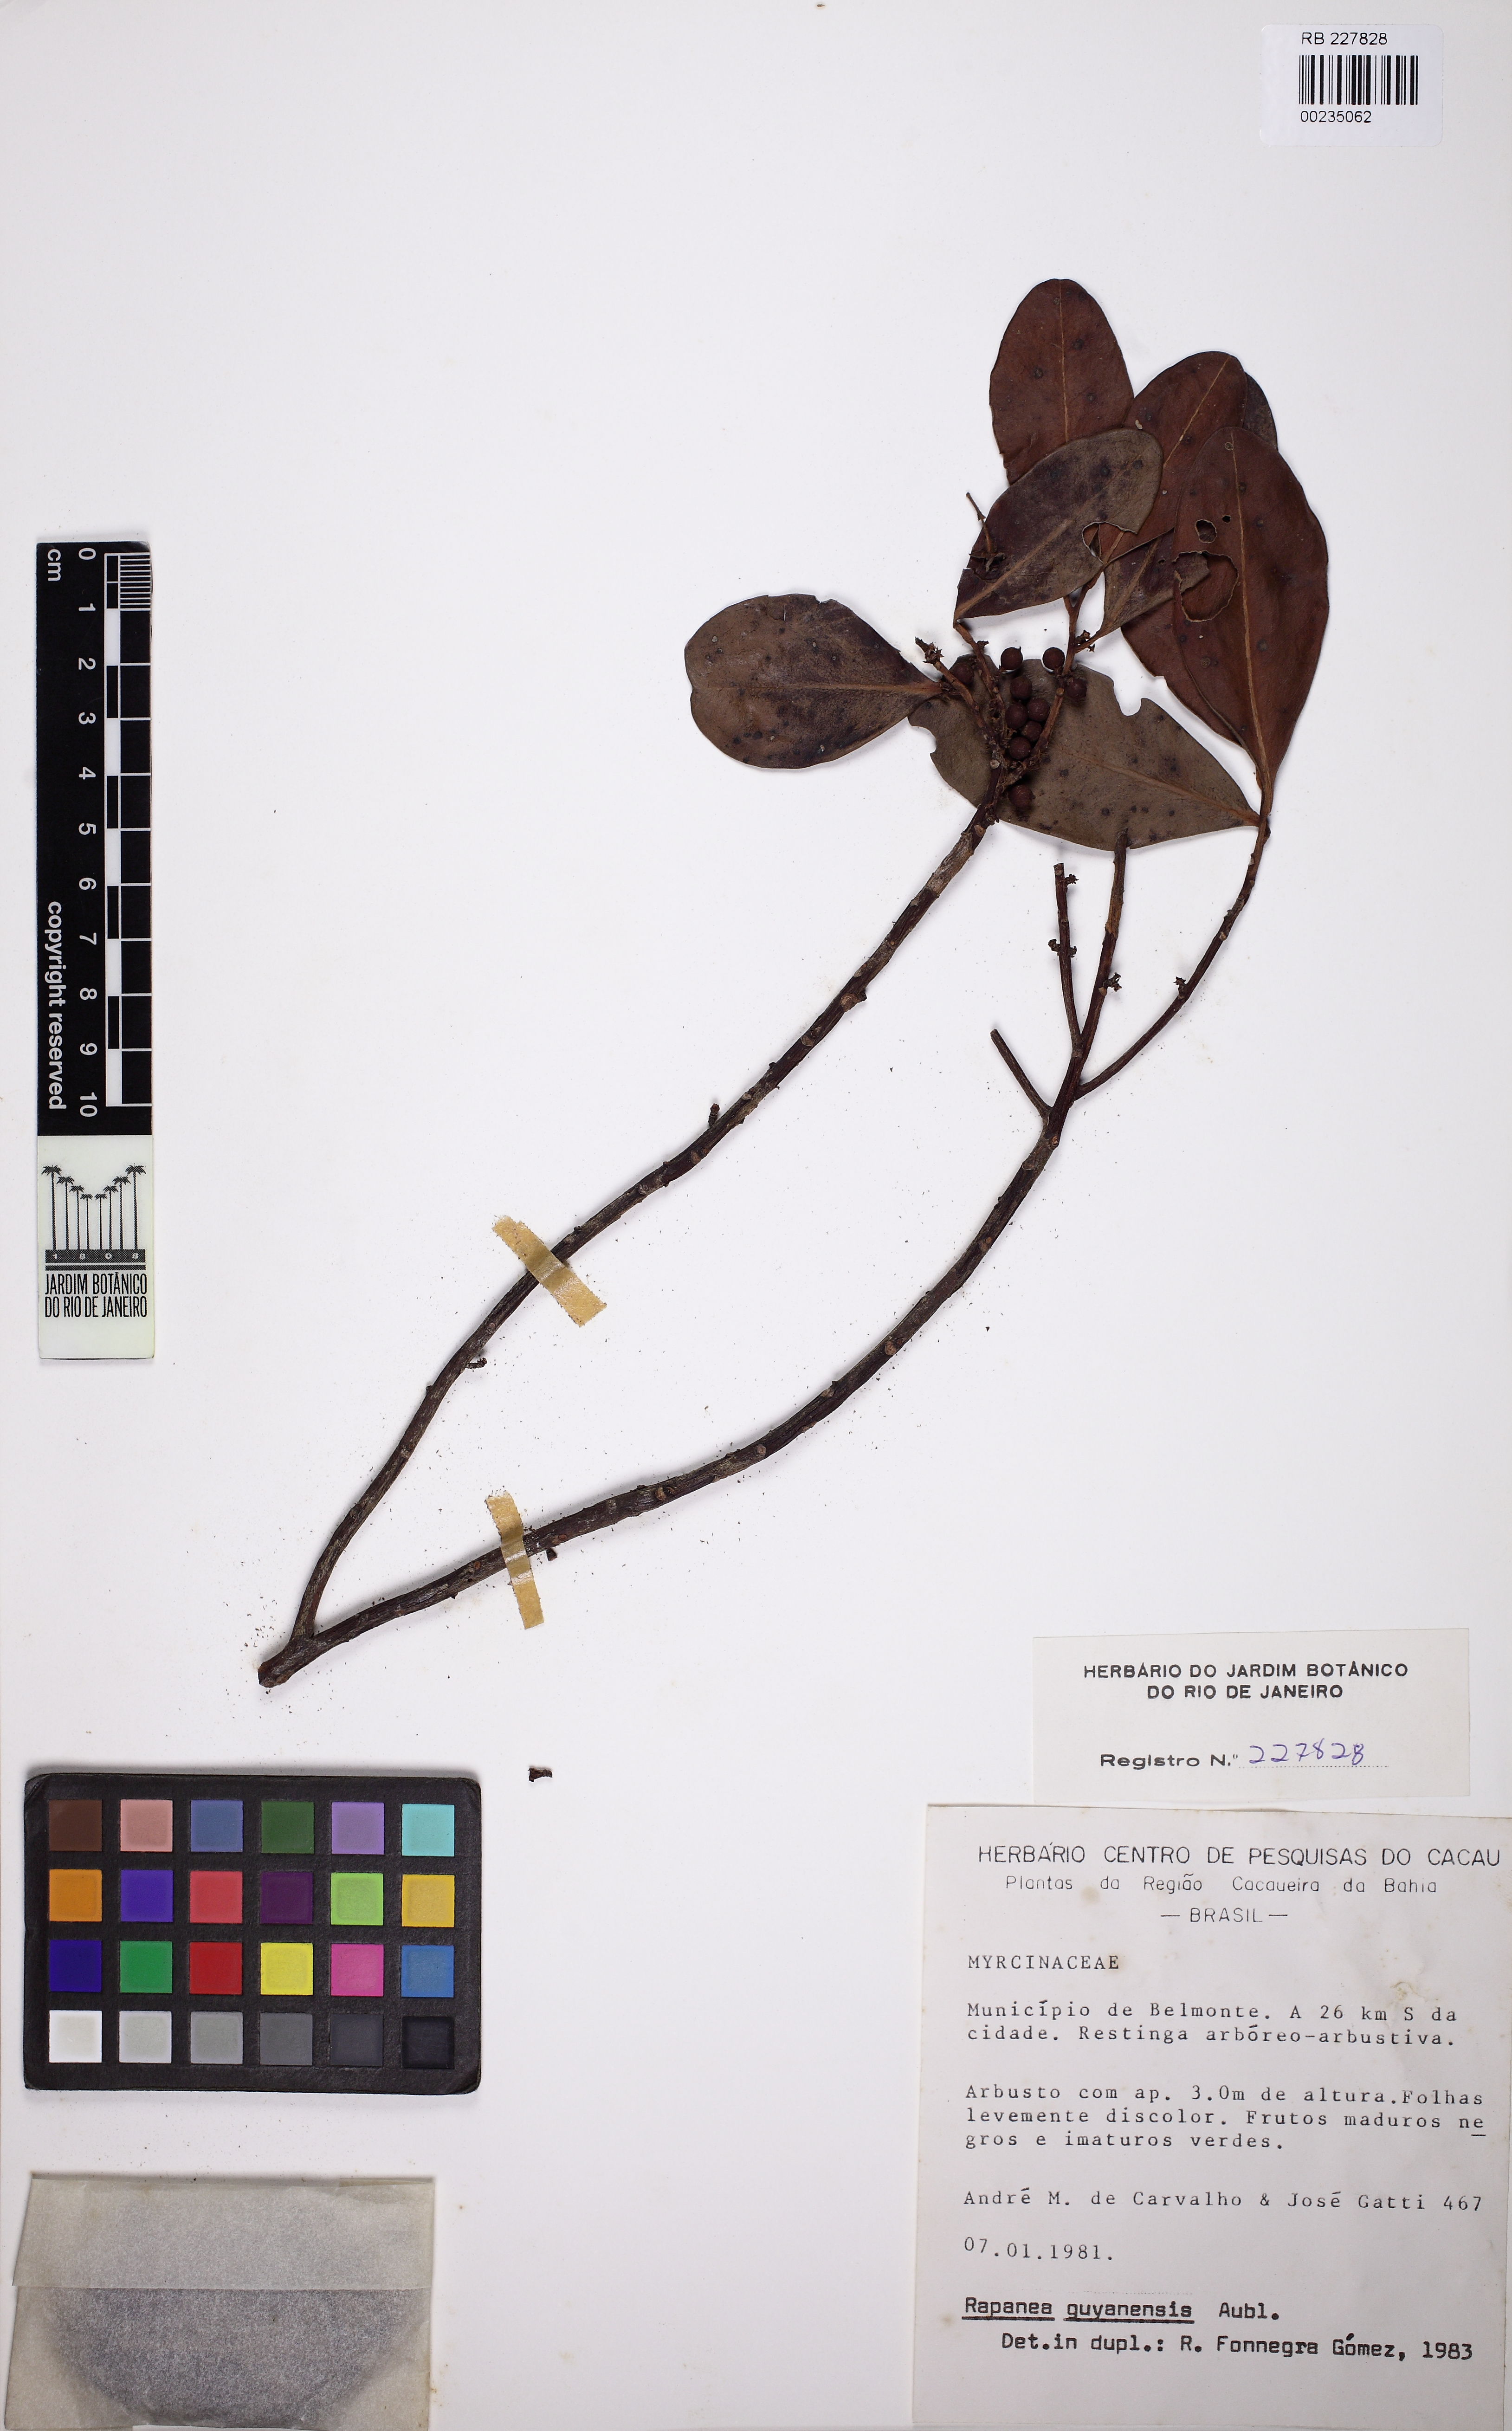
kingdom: Plantae
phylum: Tracheophyta
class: Magnoliopsida
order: Ericales
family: Primulaceae
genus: Myrsine
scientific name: Myrsine guianensis
